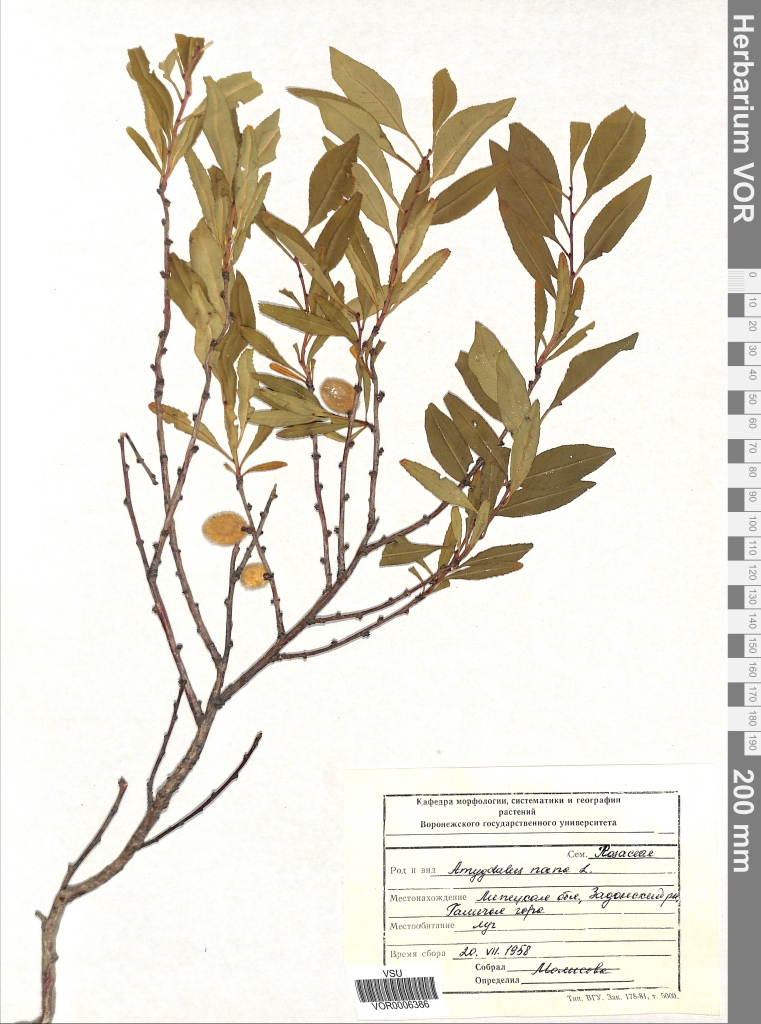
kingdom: Plantae
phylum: Tracheophyta
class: Magnoliopsida
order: Rosales
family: Rosaceae
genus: Prunus
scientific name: Prunus tenella
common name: Dwarf russian almond
